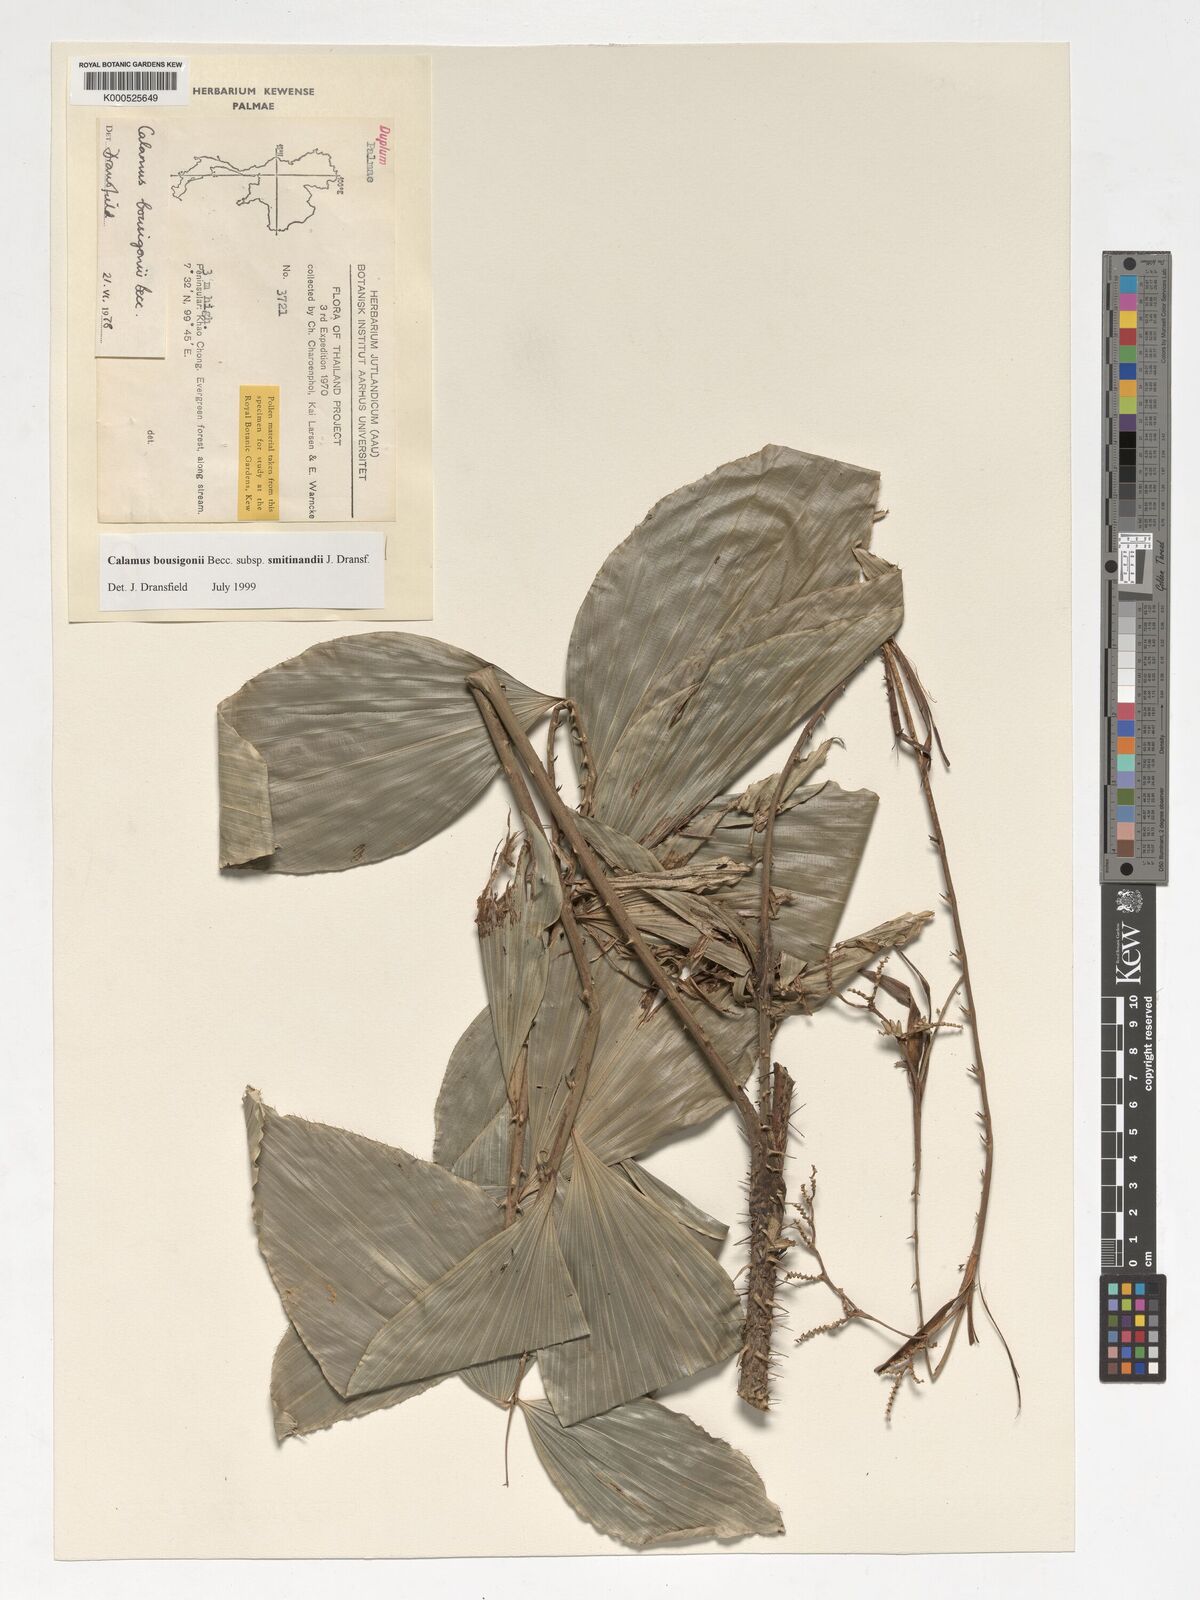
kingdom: Plantae
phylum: Tracheophyta
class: Liliopsida
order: Arecales
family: Arecaceae
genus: Calamus
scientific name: Calamus smitinandii
